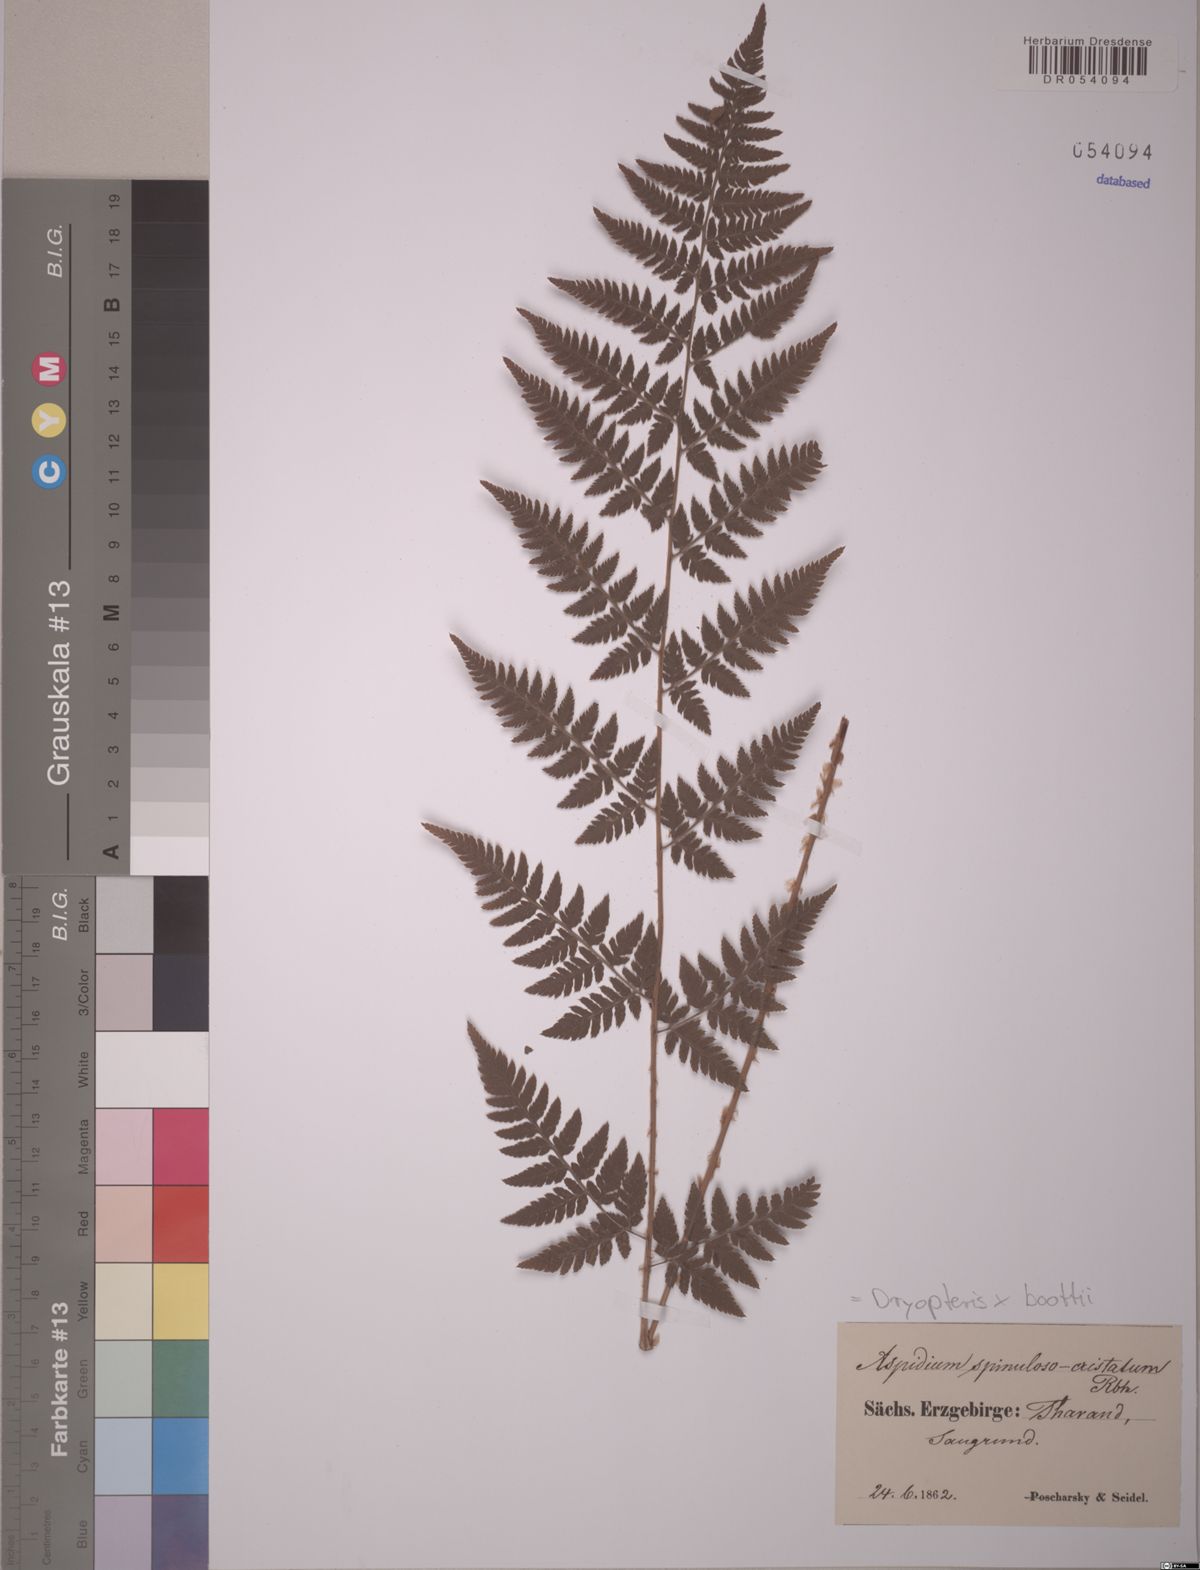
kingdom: Plantae
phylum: Tracheophyta
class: Polypodiopsida
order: Polypodiales
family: Dryopteridaceae
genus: Dryopteris
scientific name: Dryopteris boottii
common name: Boott's fern
